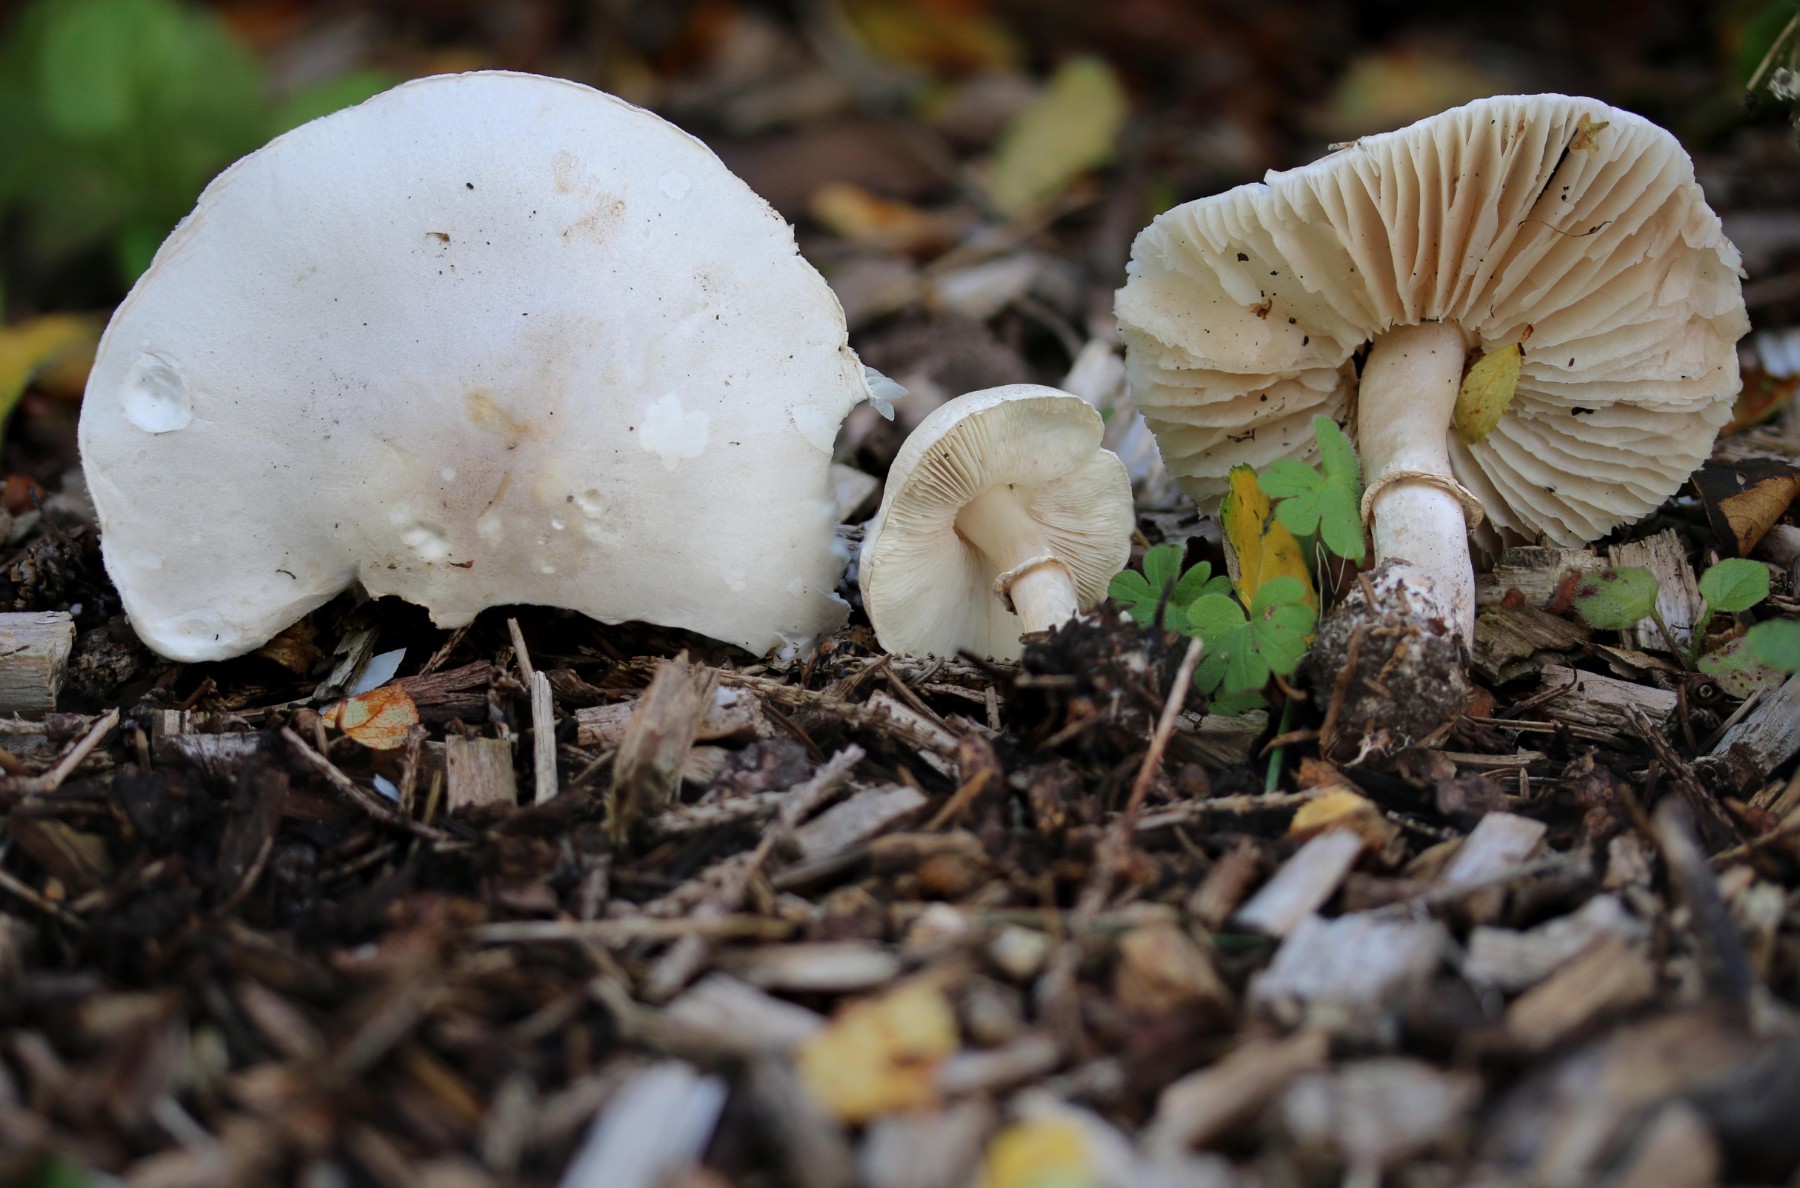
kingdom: Fungi
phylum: Basidiomycota
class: Agaricomycetes
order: Agaricales
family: Agaricaceae
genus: Leucoagaricus
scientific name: Leucoagaricus leucothites
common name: rosabladet silkehat
